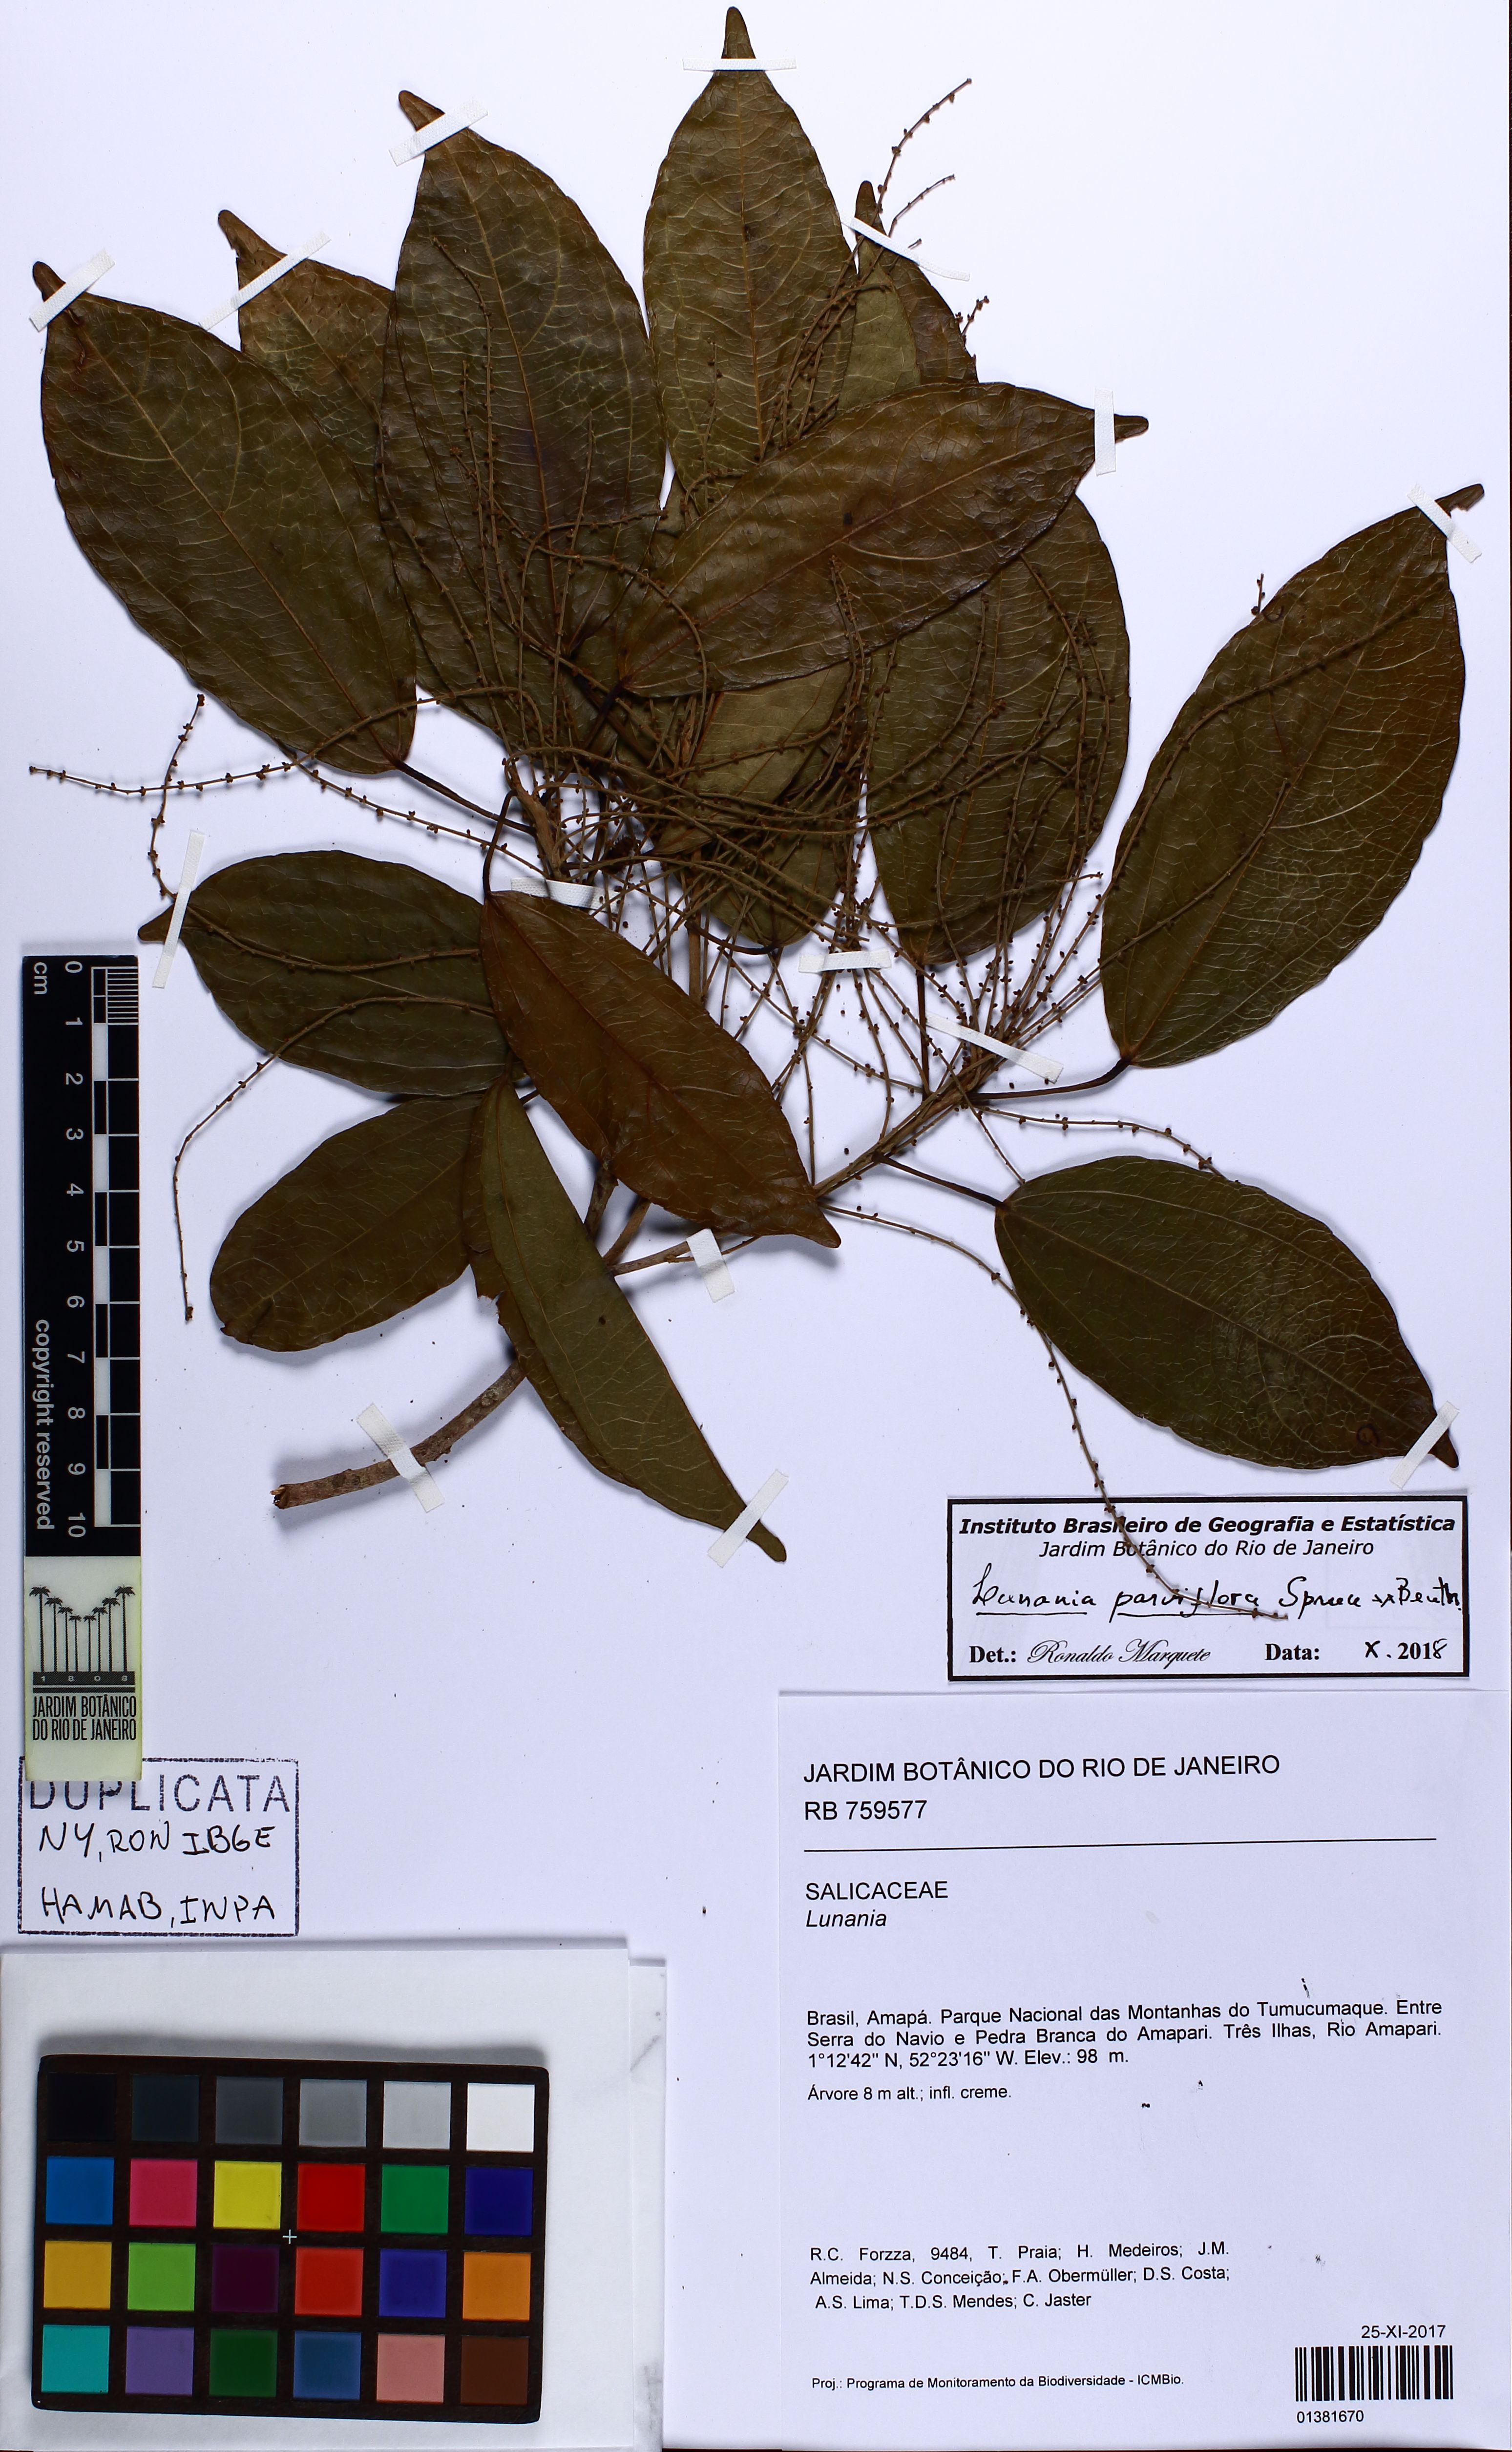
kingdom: Plantae
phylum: Tracheophyta
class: Magnoliopsida
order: Malpighiales
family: Salicaceae
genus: Lunania
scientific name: Lunania parviflora
